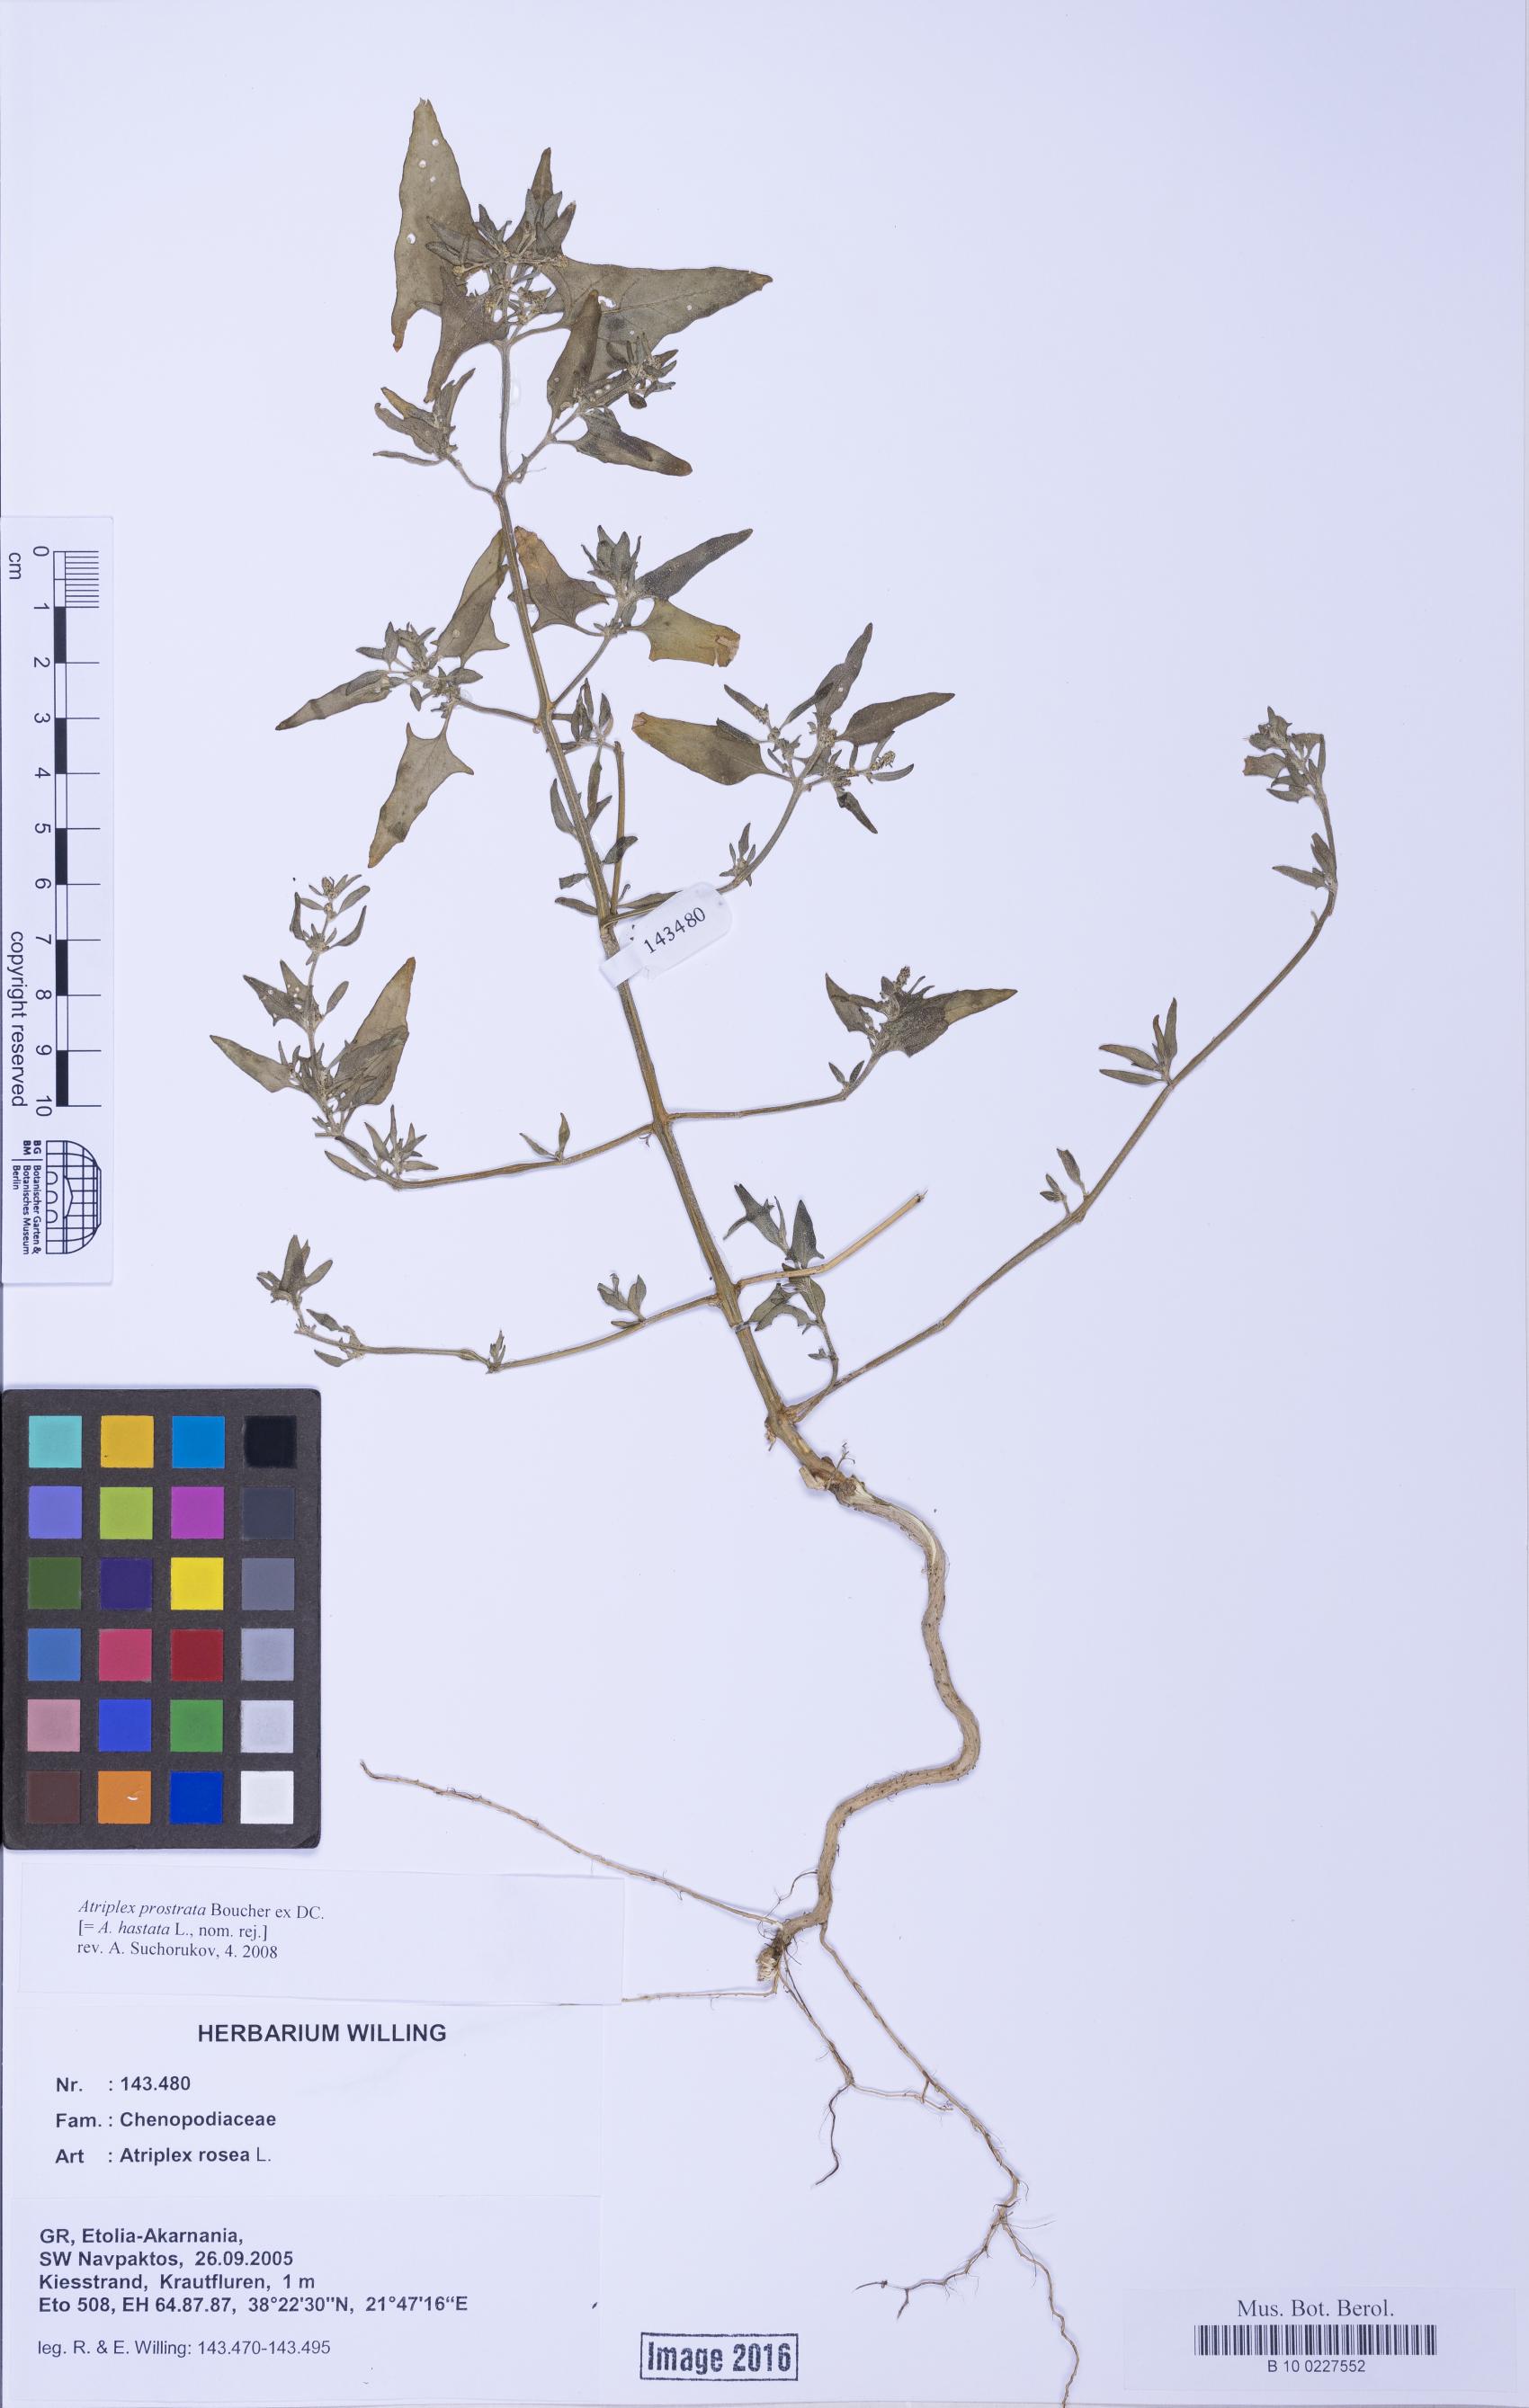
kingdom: Plantae
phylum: Tracheophyta
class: Magnoliopsida
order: Caryophyllales
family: Amaranthaceae
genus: Atriplex
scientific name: Atriplex prostrata
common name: Spear-leaved orache
